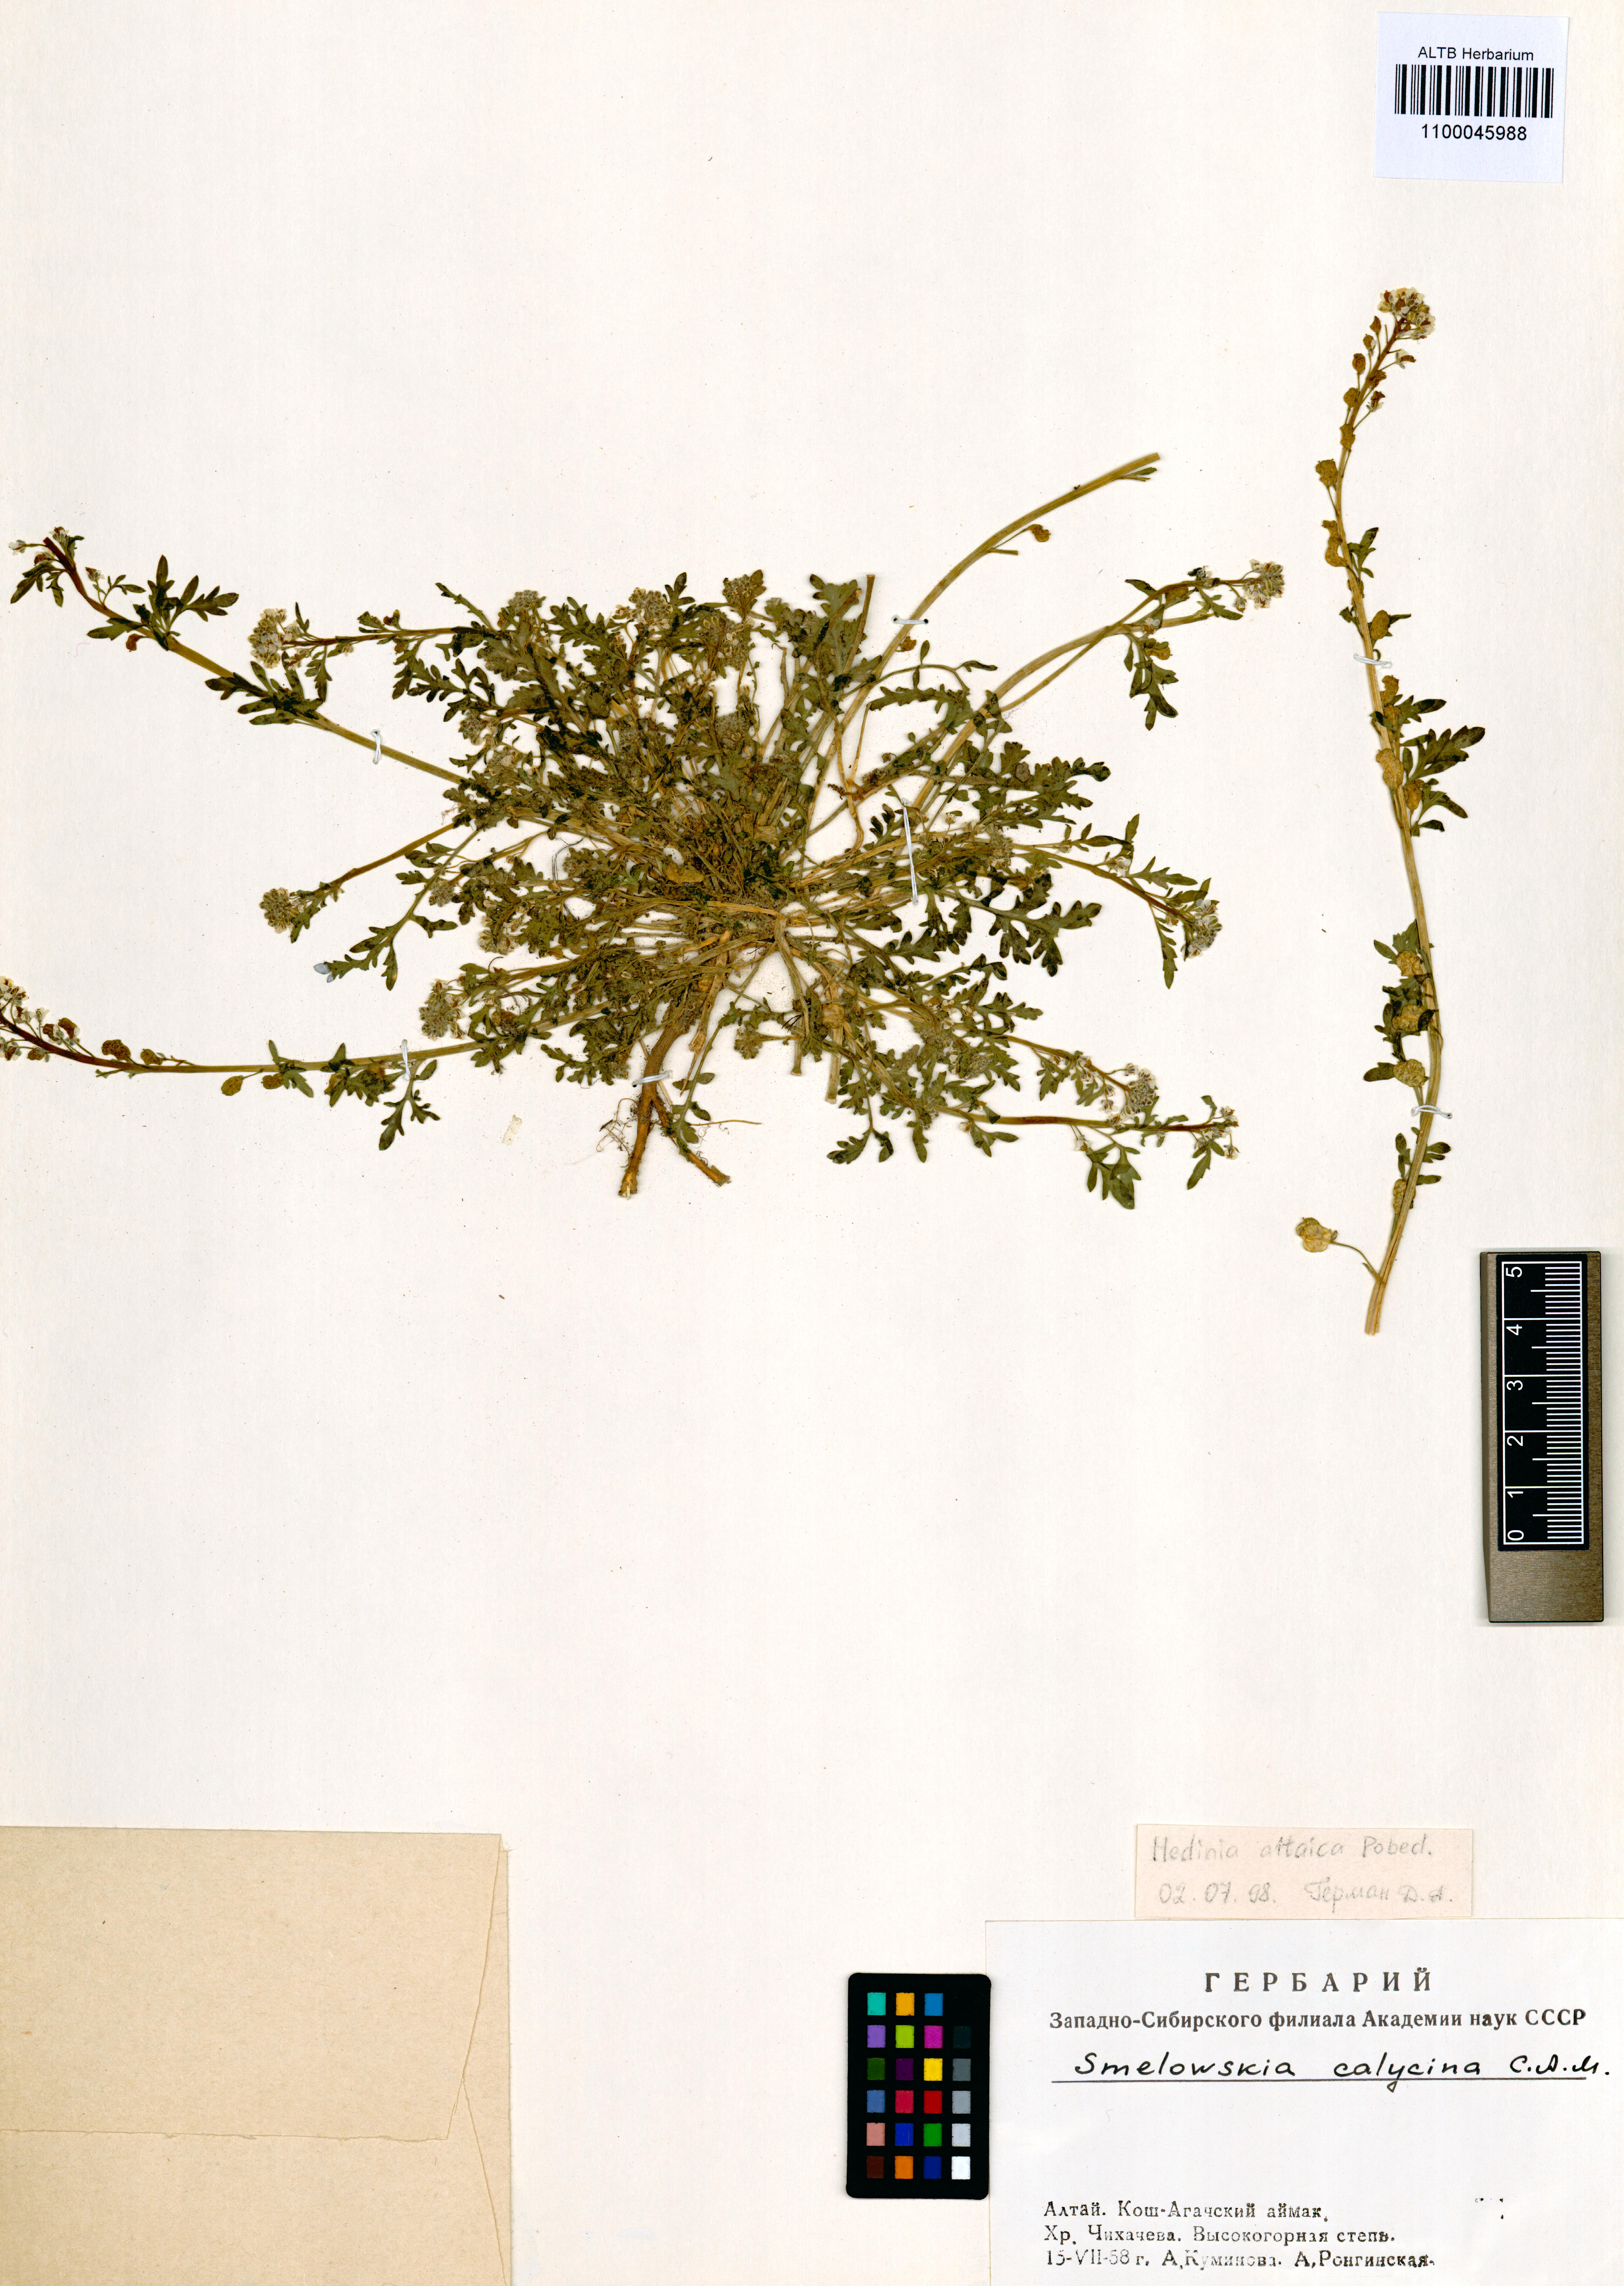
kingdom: Plantae
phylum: Tracheophyta
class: Magnoliopsida
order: Brassicales
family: Brassicaceae
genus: Smelowskia
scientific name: Smelowskia altaica
